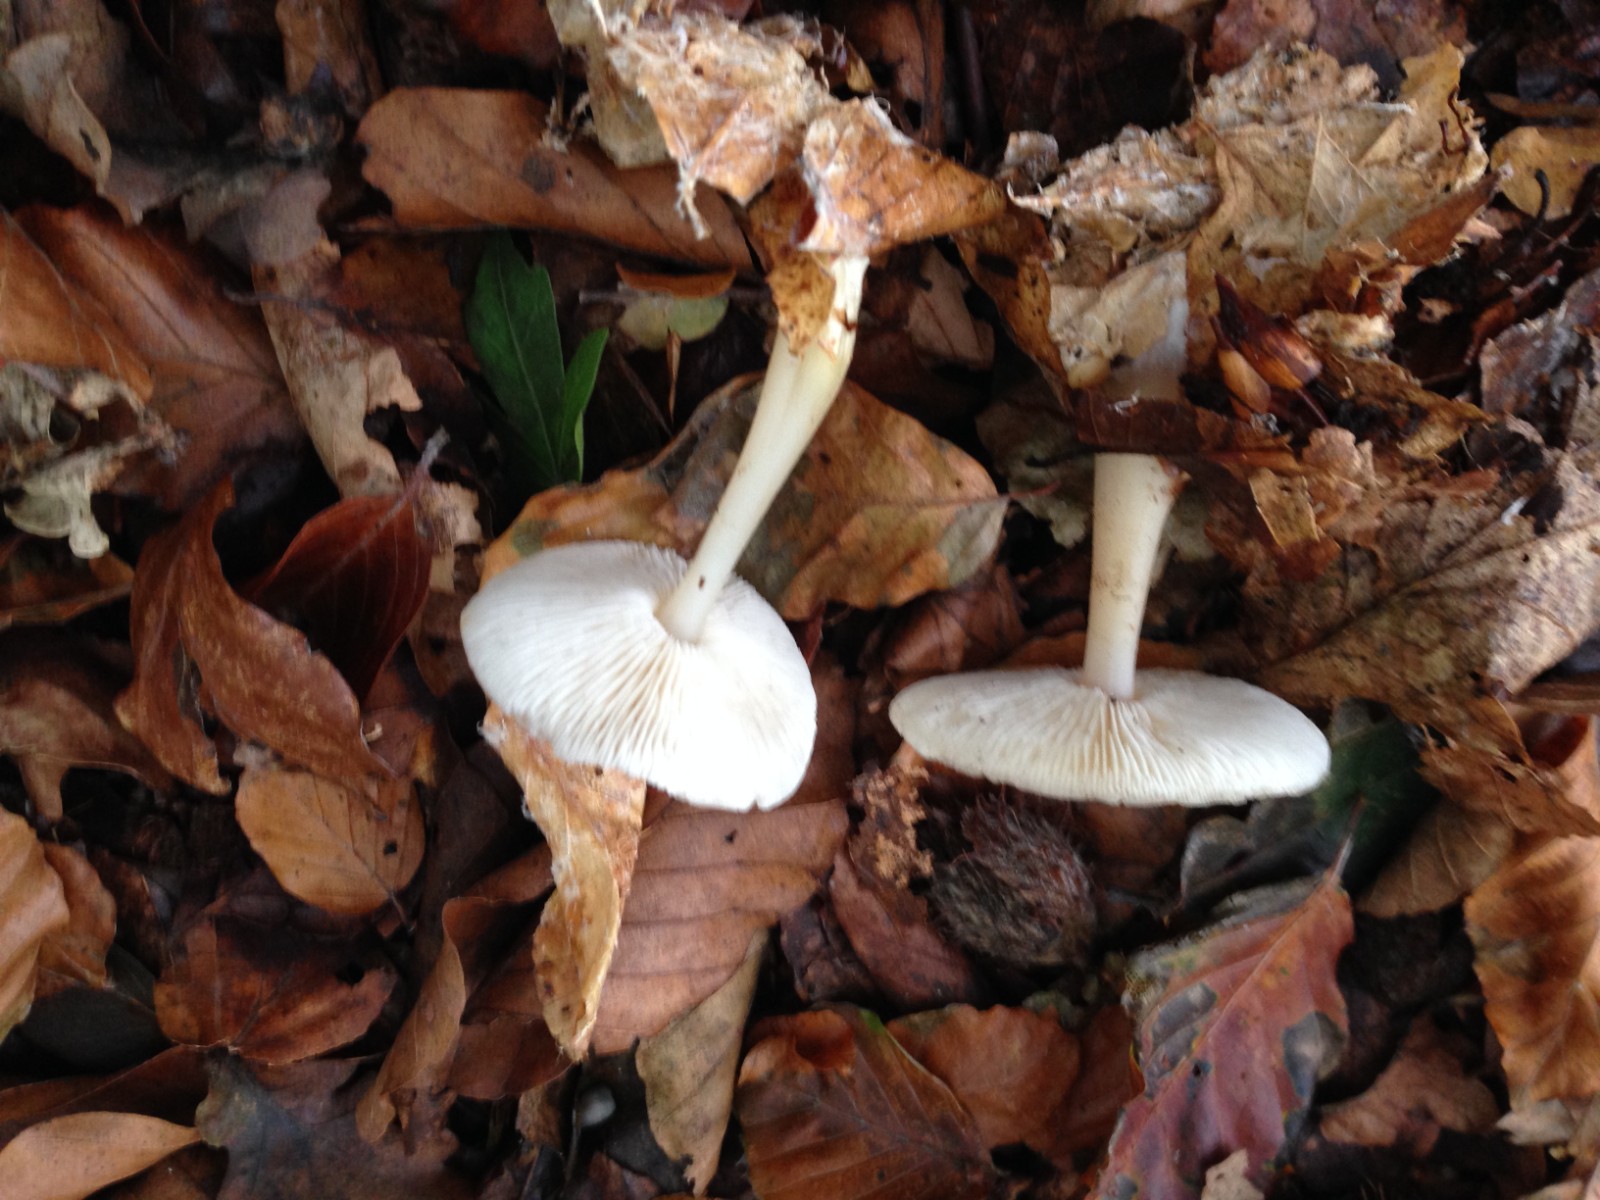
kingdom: Fungi
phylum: Basidiomycota
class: Agaricomycetes
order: Agaricales
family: Omphalotaceae
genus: Rhodocollybia
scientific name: Rhodocollybia asema
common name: horngrå fladhat
